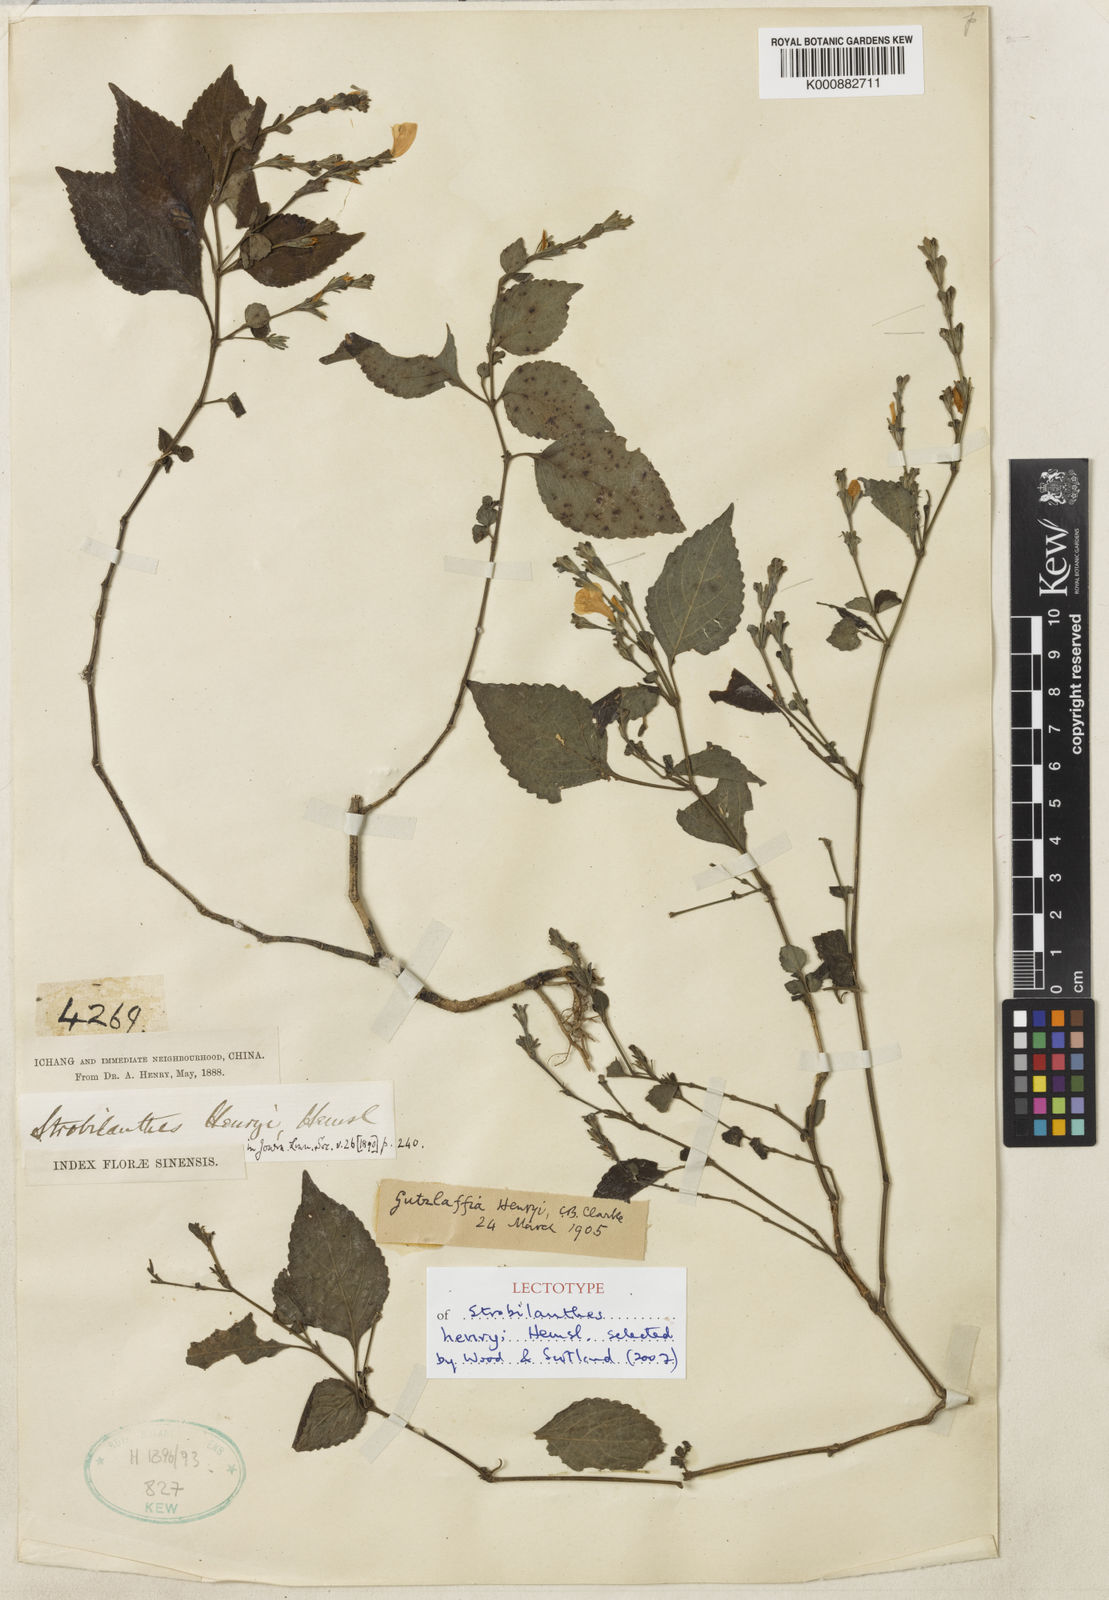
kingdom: Plantae
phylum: Tracheophyta
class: Magnoliopsida
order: Lamiales
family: Acanthaceae
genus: Strobilanthes
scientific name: Strobilanthes henryi
